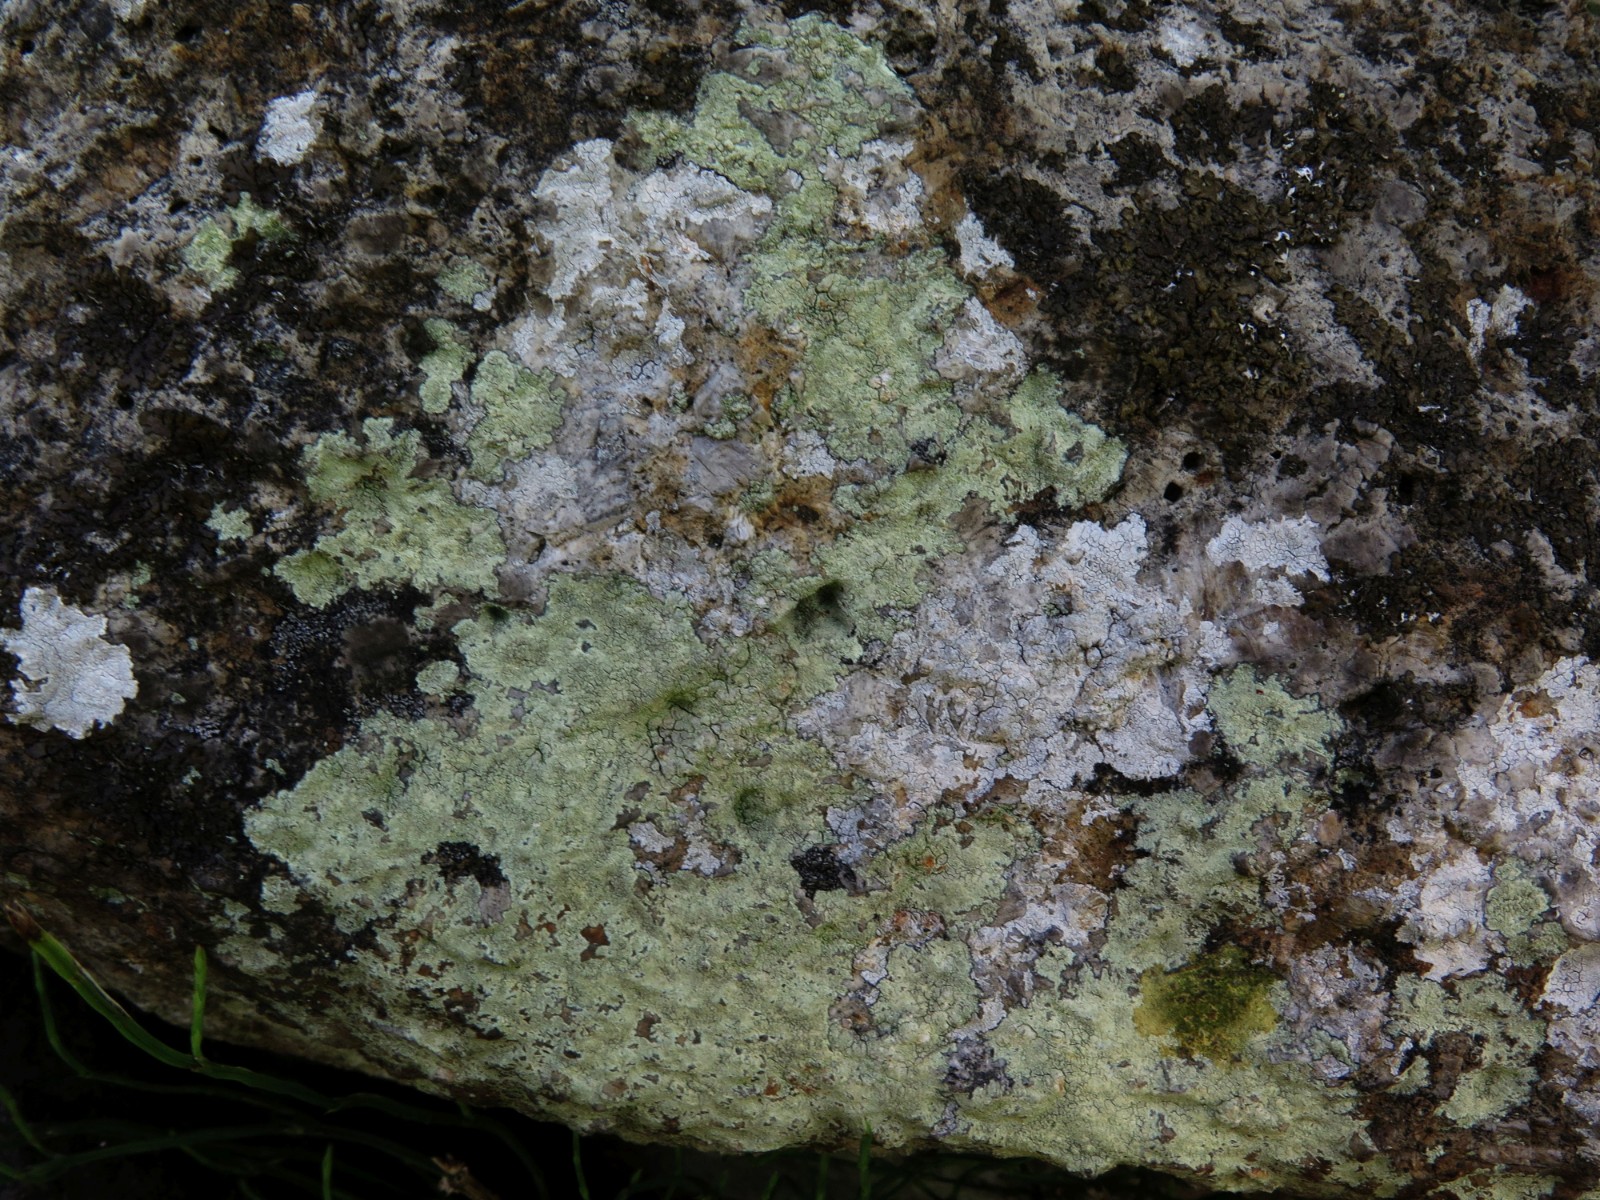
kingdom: Fungi
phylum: Ascomycota
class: Lecanoromycetes
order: Lecanorales
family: Lecanoraceae
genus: Lecanora
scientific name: Lecanora orosthea
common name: grønskurvet kantskivelav
